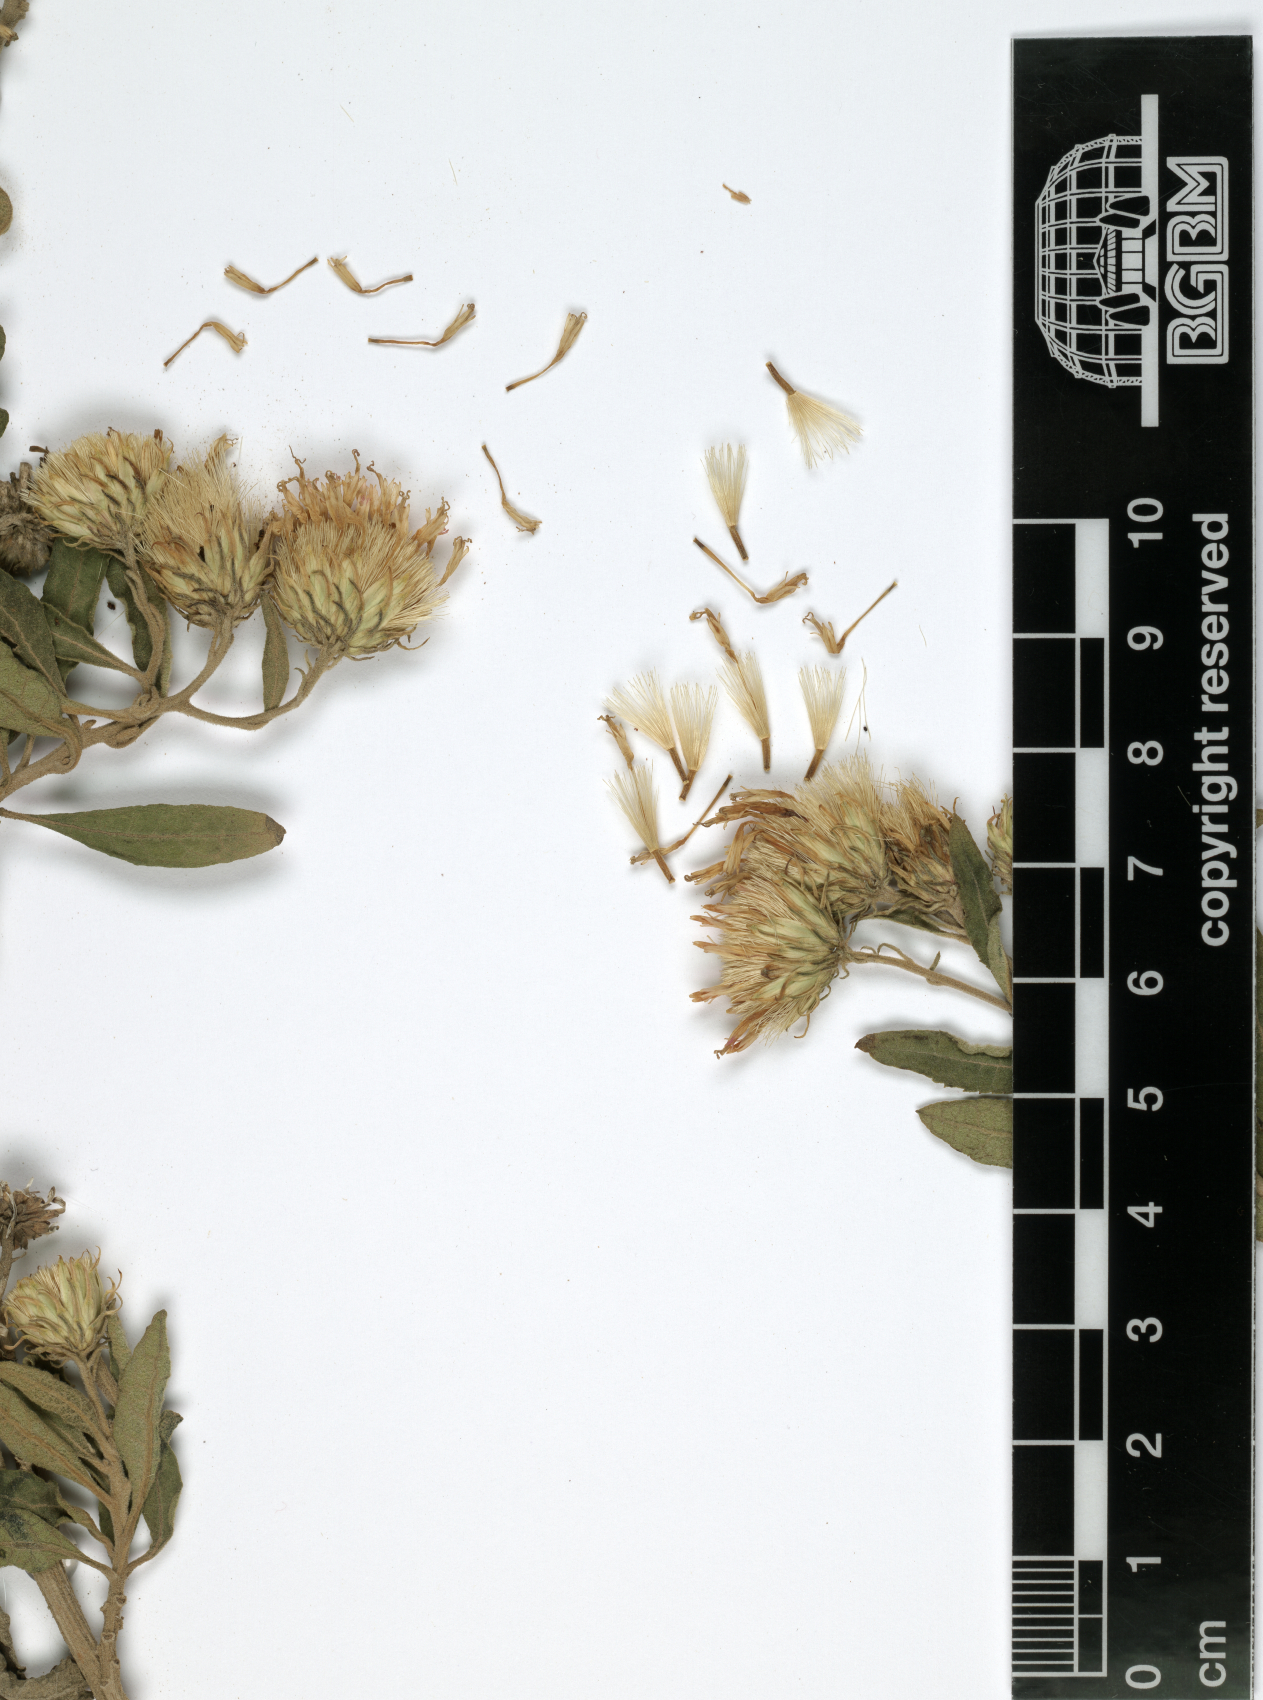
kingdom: Plantae
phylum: Tracheophyta
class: Magnoliopsida
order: Asterales
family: Asteraceae
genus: Baccharoides
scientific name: Baccharoides schimperi
